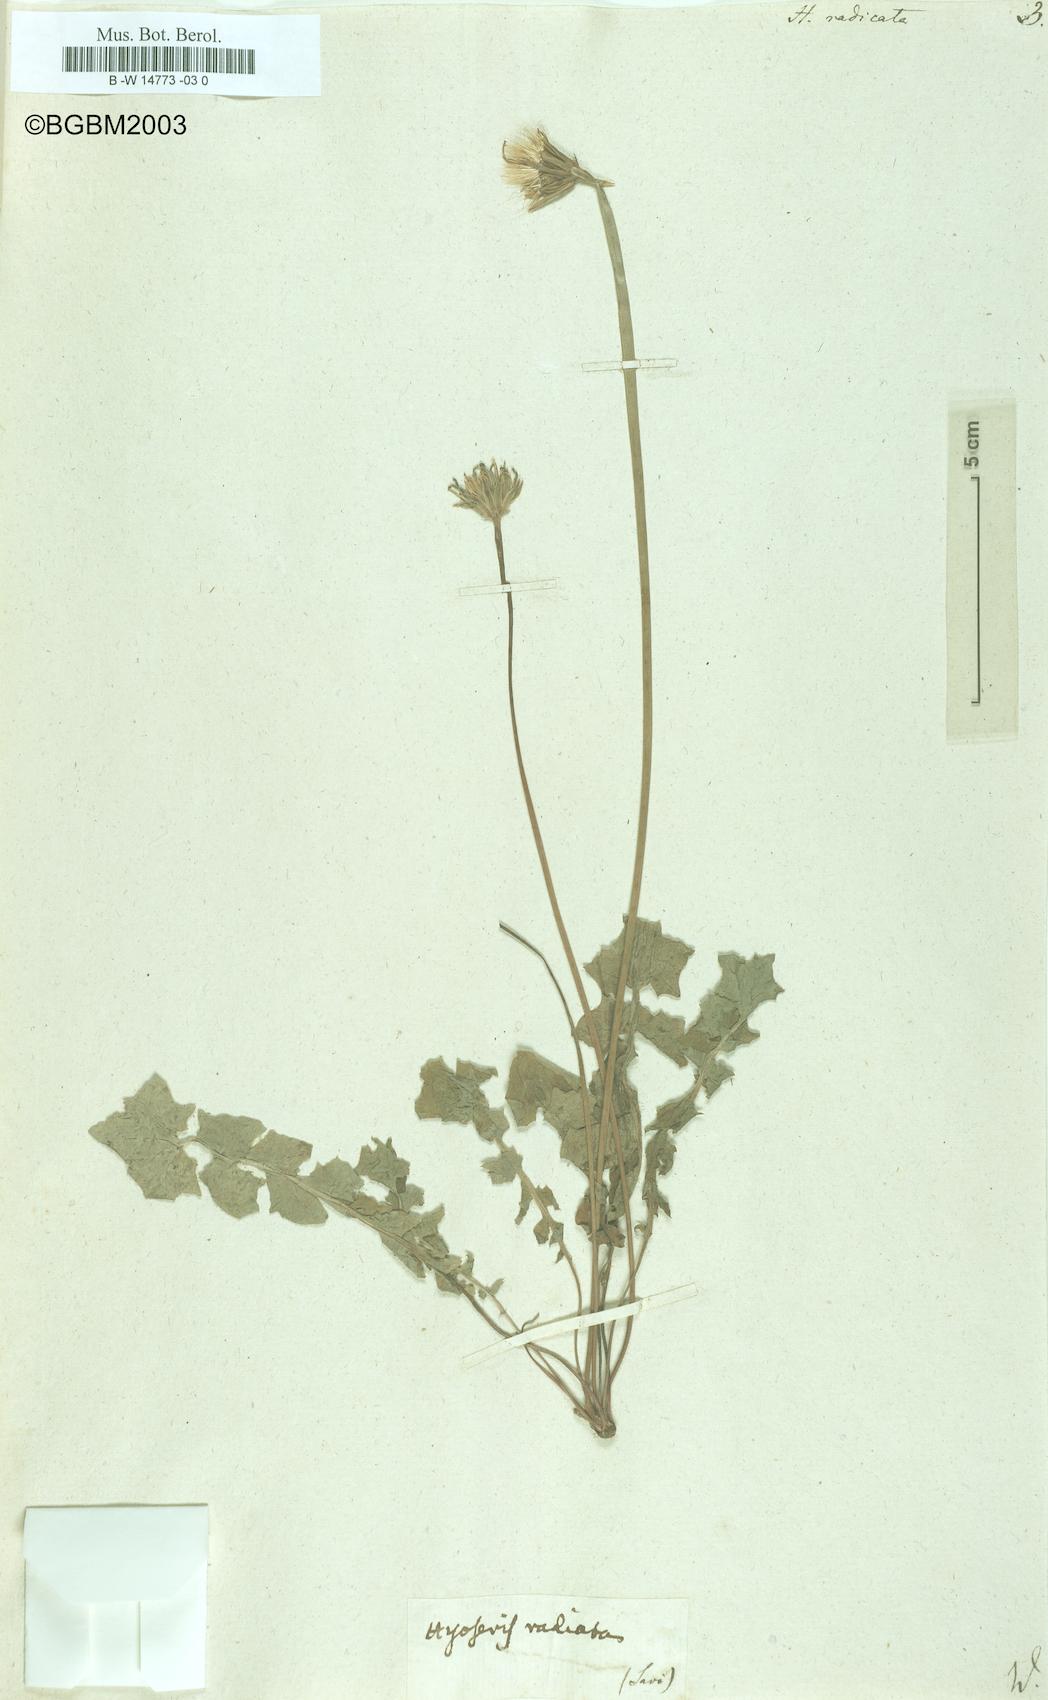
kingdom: Plantae
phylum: Tracheophyta
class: Magnoliopsida
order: Asterales
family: Asteraceae
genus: Hyoseris
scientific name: Hyoseris radiata
